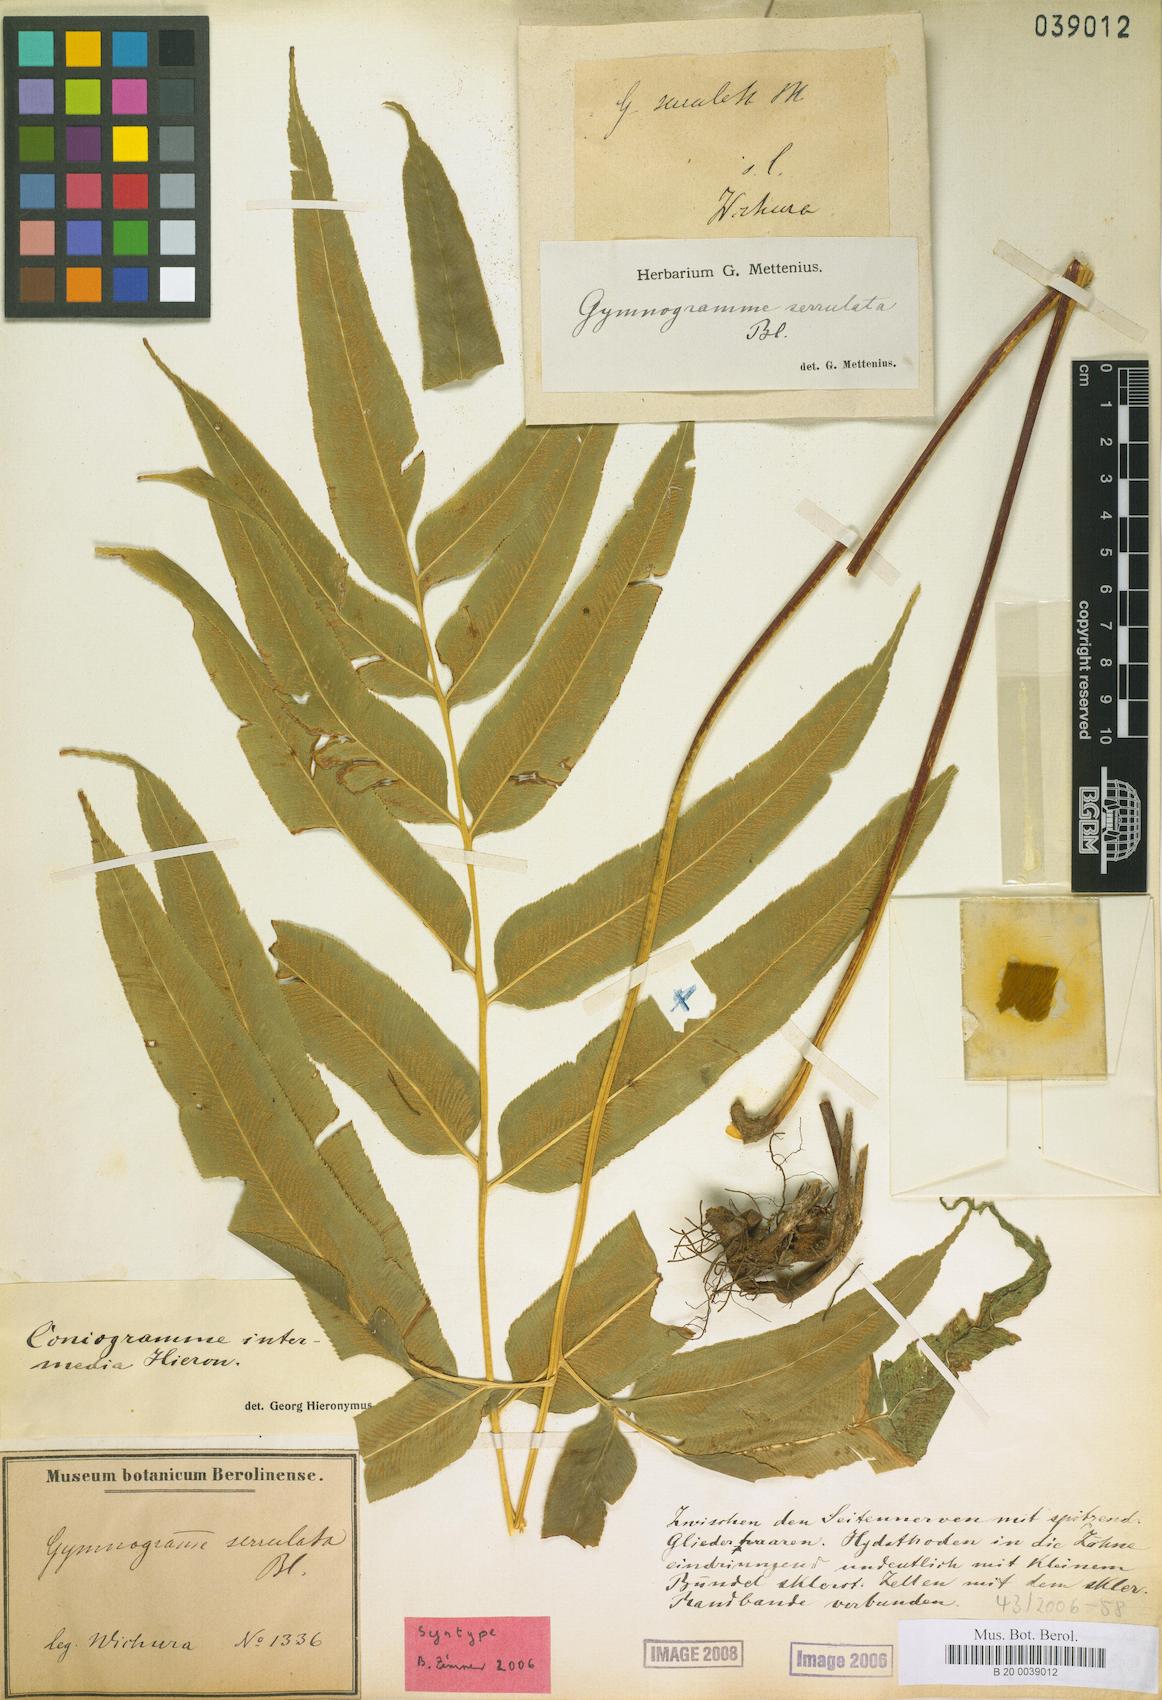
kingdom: Plantae
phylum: Tracheophyta
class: Polypodiopsida
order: Polypodiales
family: Pteridaceae
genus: Coniogramme
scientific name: Coniogramme intermedia
